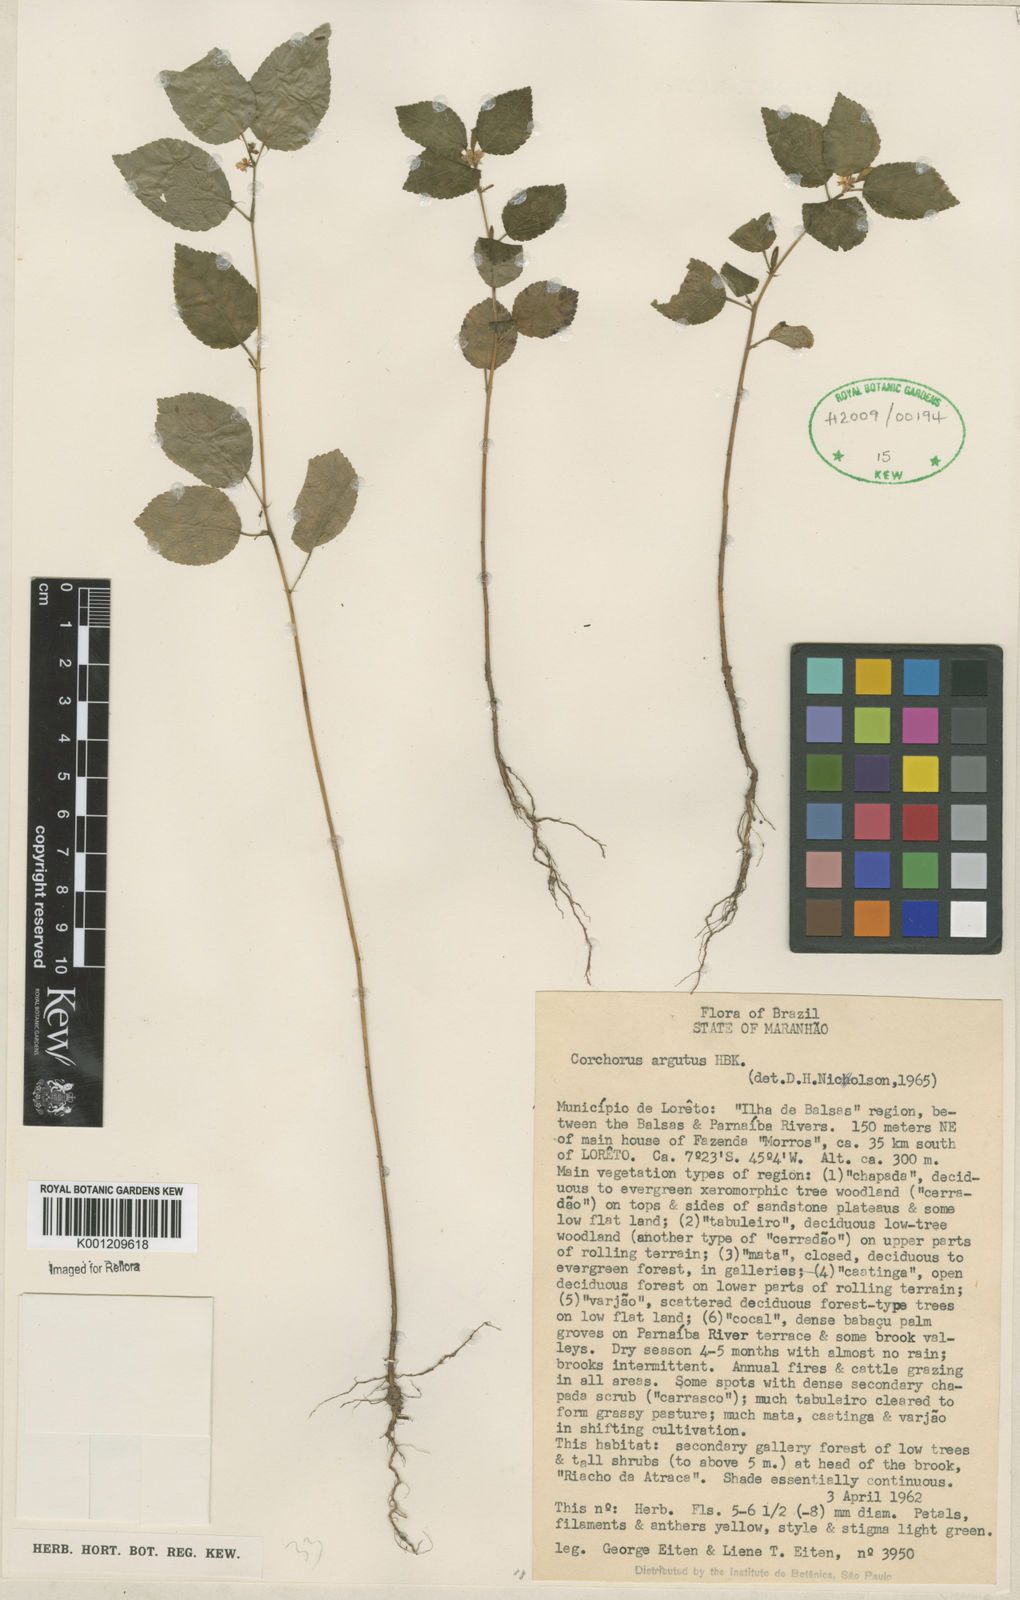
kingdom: Plantae
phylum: Tracheophyta
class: Magnoliopsida
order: Malvales
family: Malvaceae
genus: Corchorus
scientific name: Corchorus argutus
